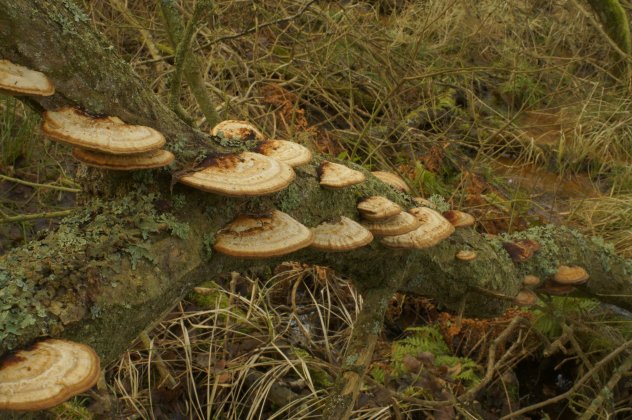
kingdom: Fungi
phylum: Basidiomycota
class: Agaricomycetes
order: Polyporales
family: Polyporaceae
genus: Daedaleopsis
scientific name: Daedaleopsis confragosa
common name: rødmende læderporesvamp
